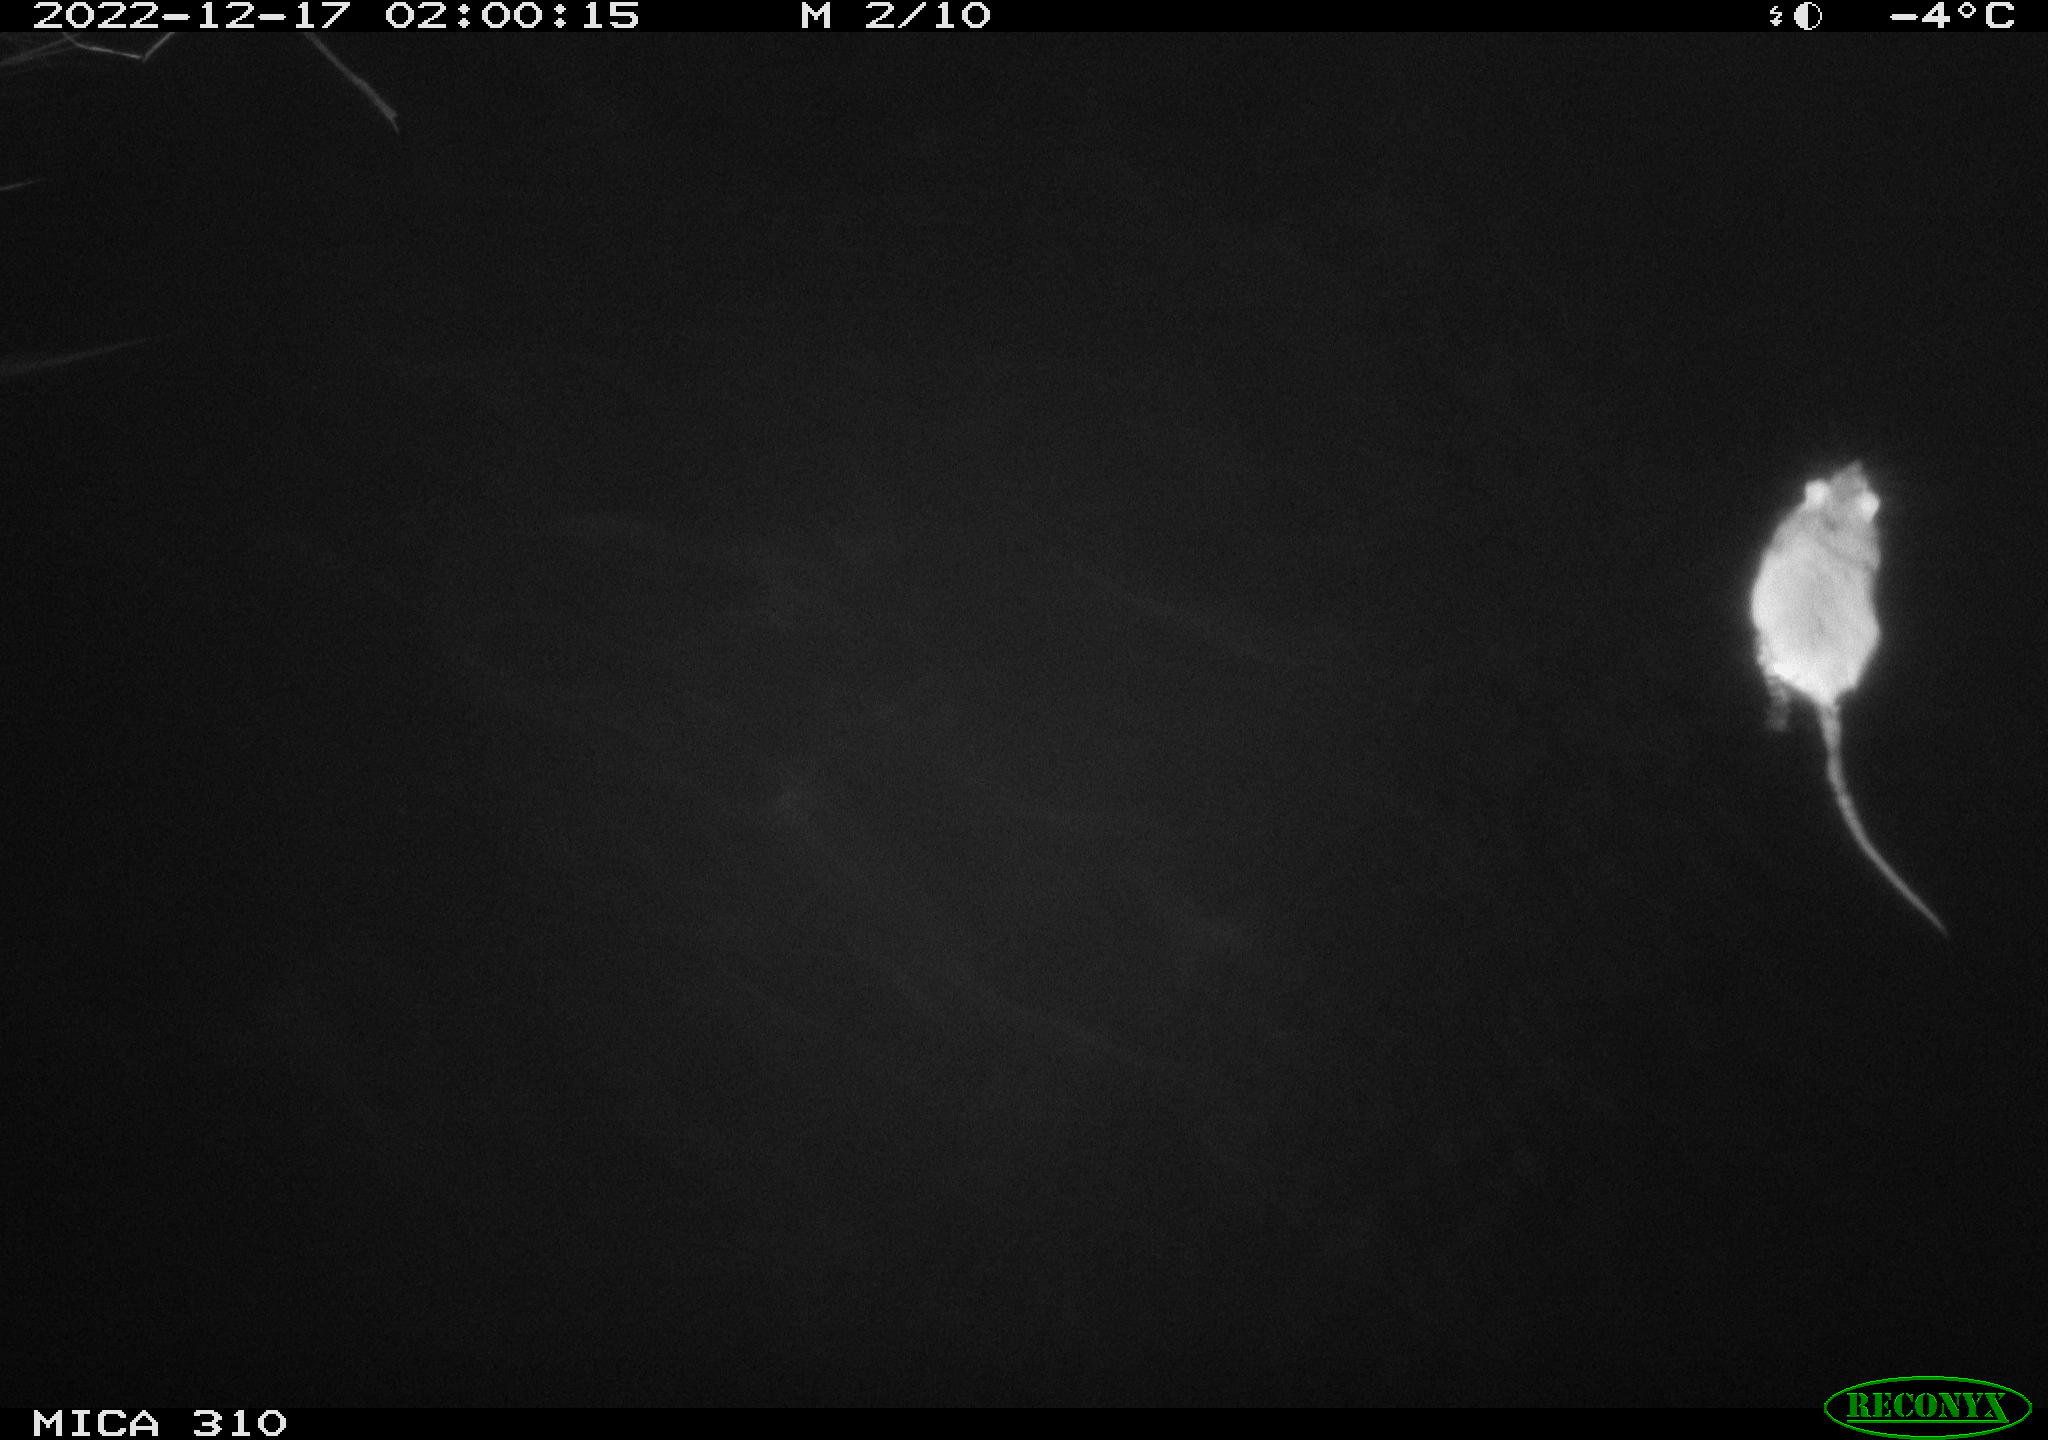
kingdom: Animalia
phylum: Chordata
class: Mammalia
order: Rodentia
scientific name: Rodentia
